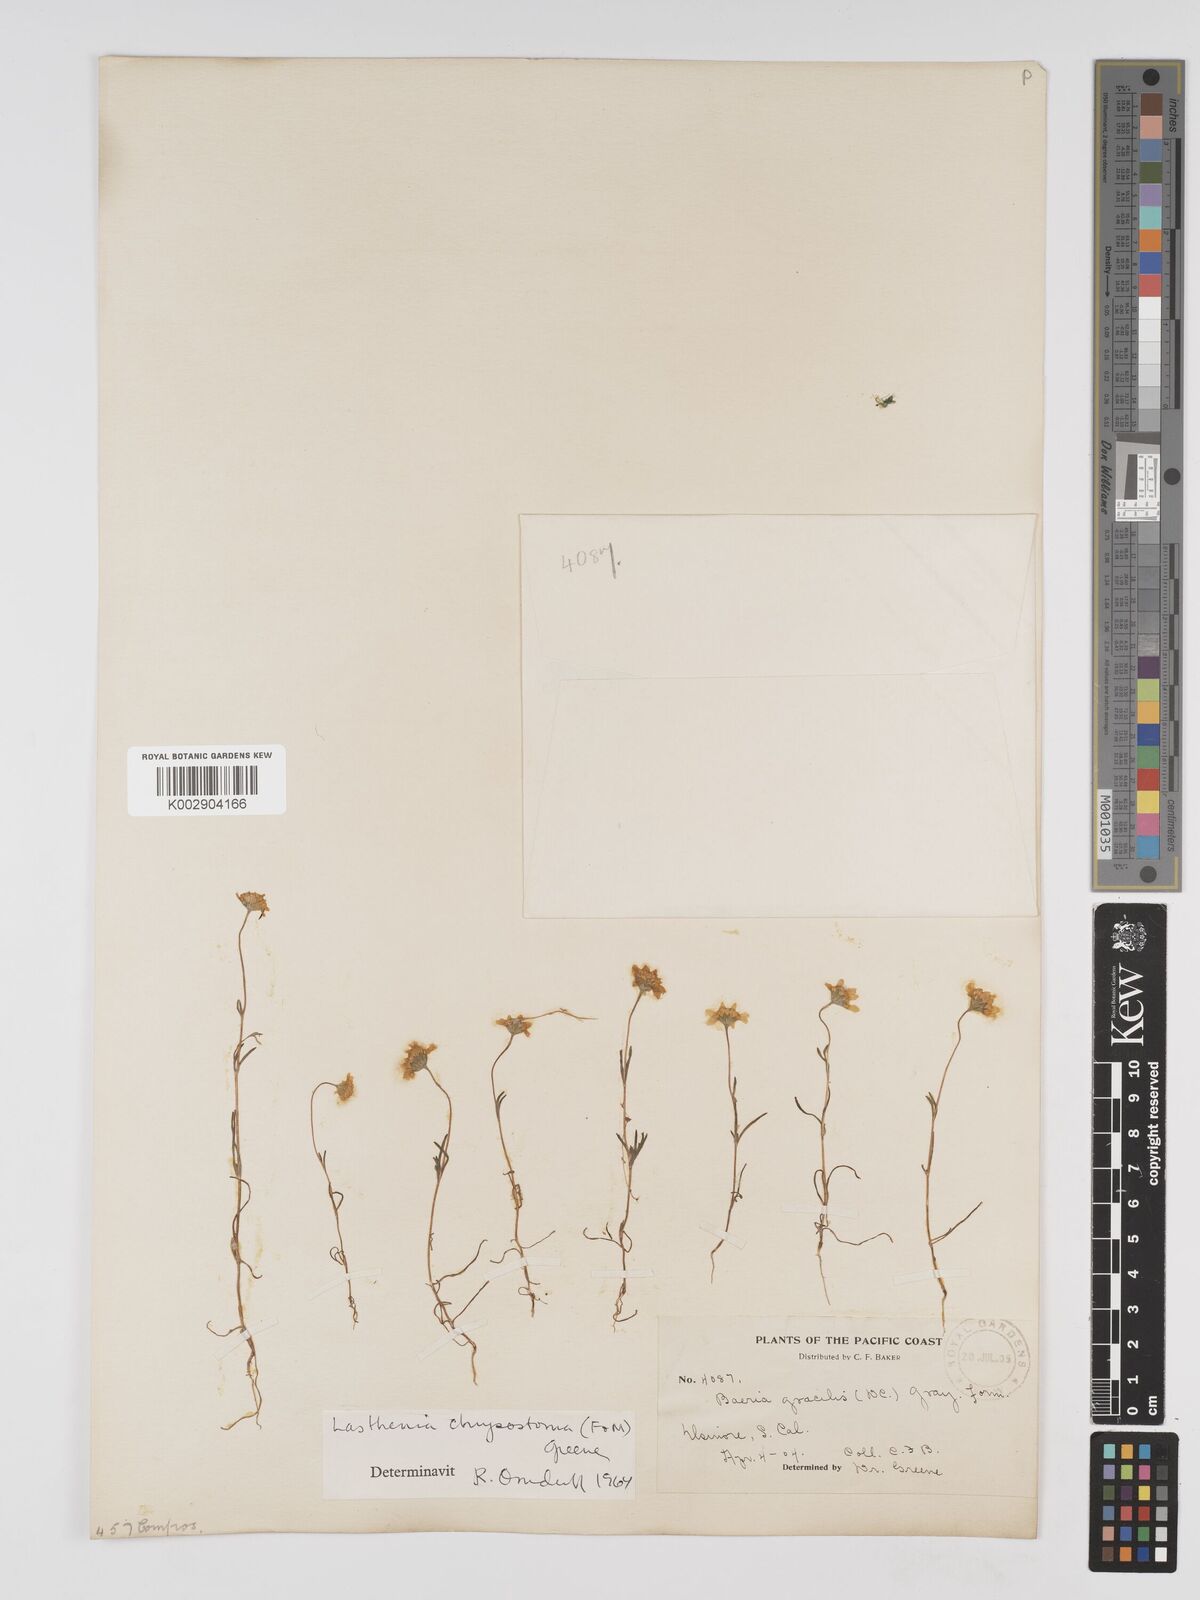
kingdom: Plantae
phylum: Tracheophyta
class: Magnoliopsida
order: Asterales
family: Asteraceae
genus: Lasthenia
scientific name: Lasthenia californica
